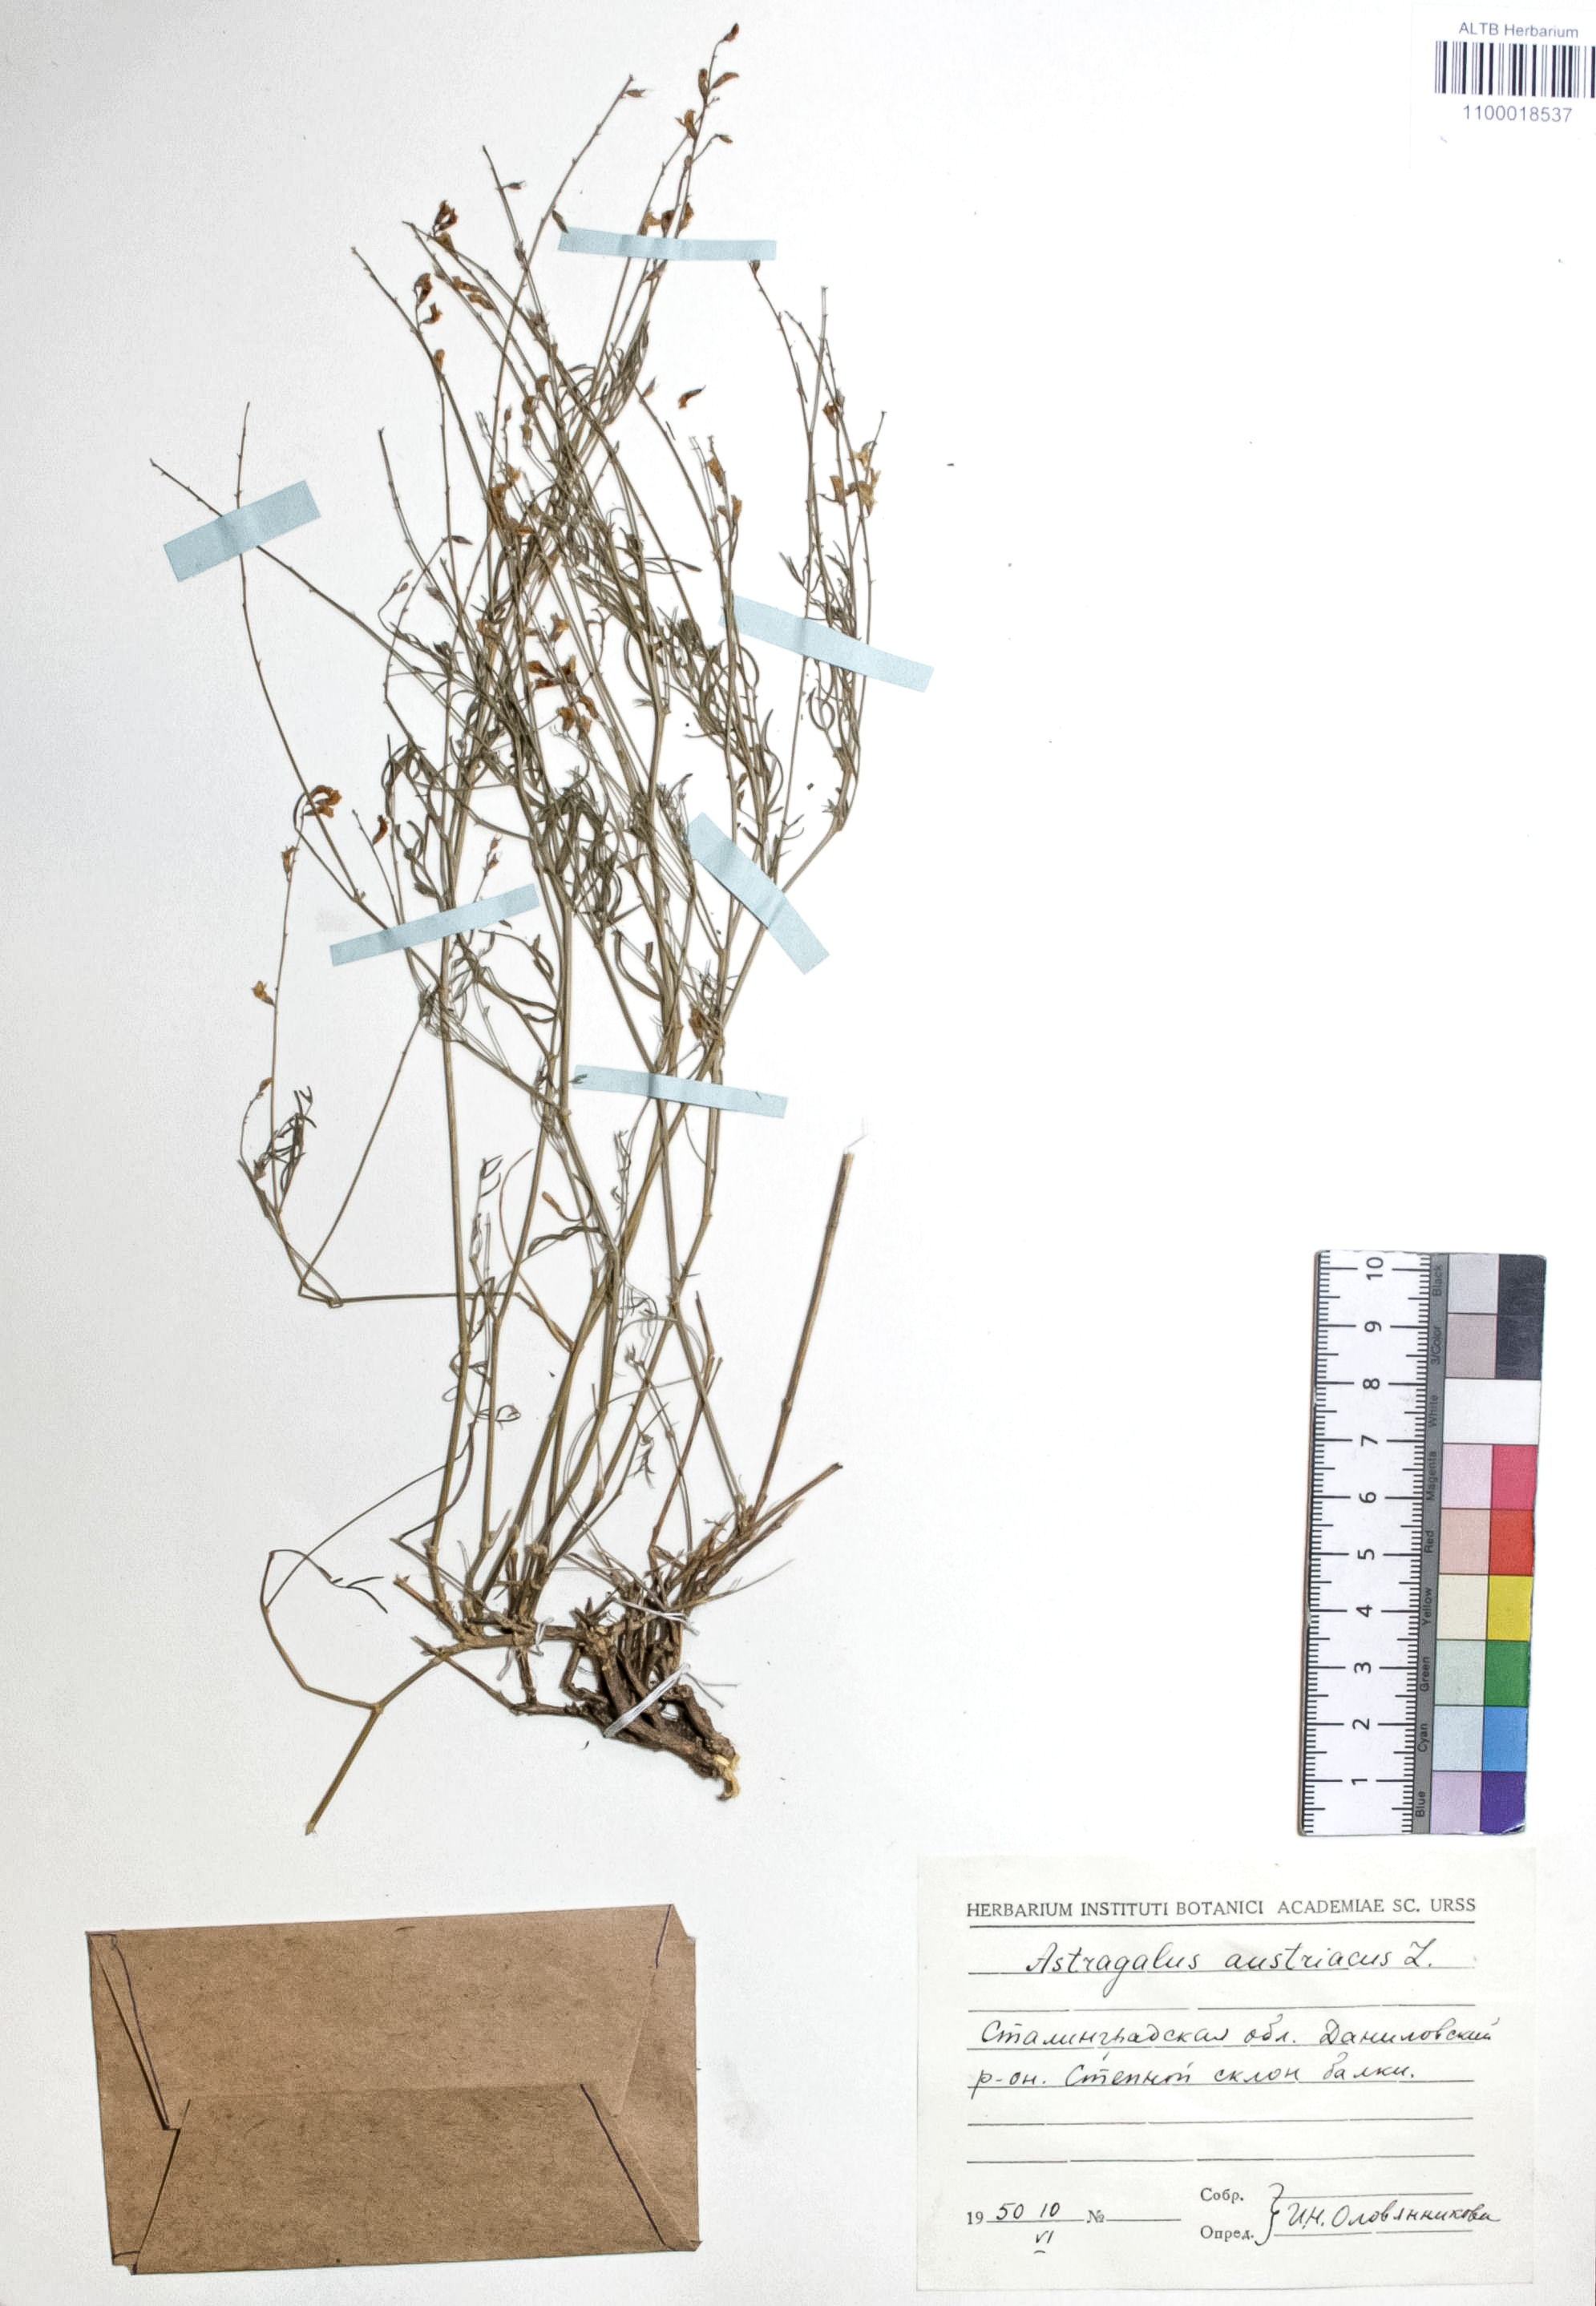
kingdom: Plantae
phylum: Tracheophyta
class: Magnoliopsida
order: Fabales
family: Fabaceae
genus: Astragalus
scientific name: Astragalus austriacus
